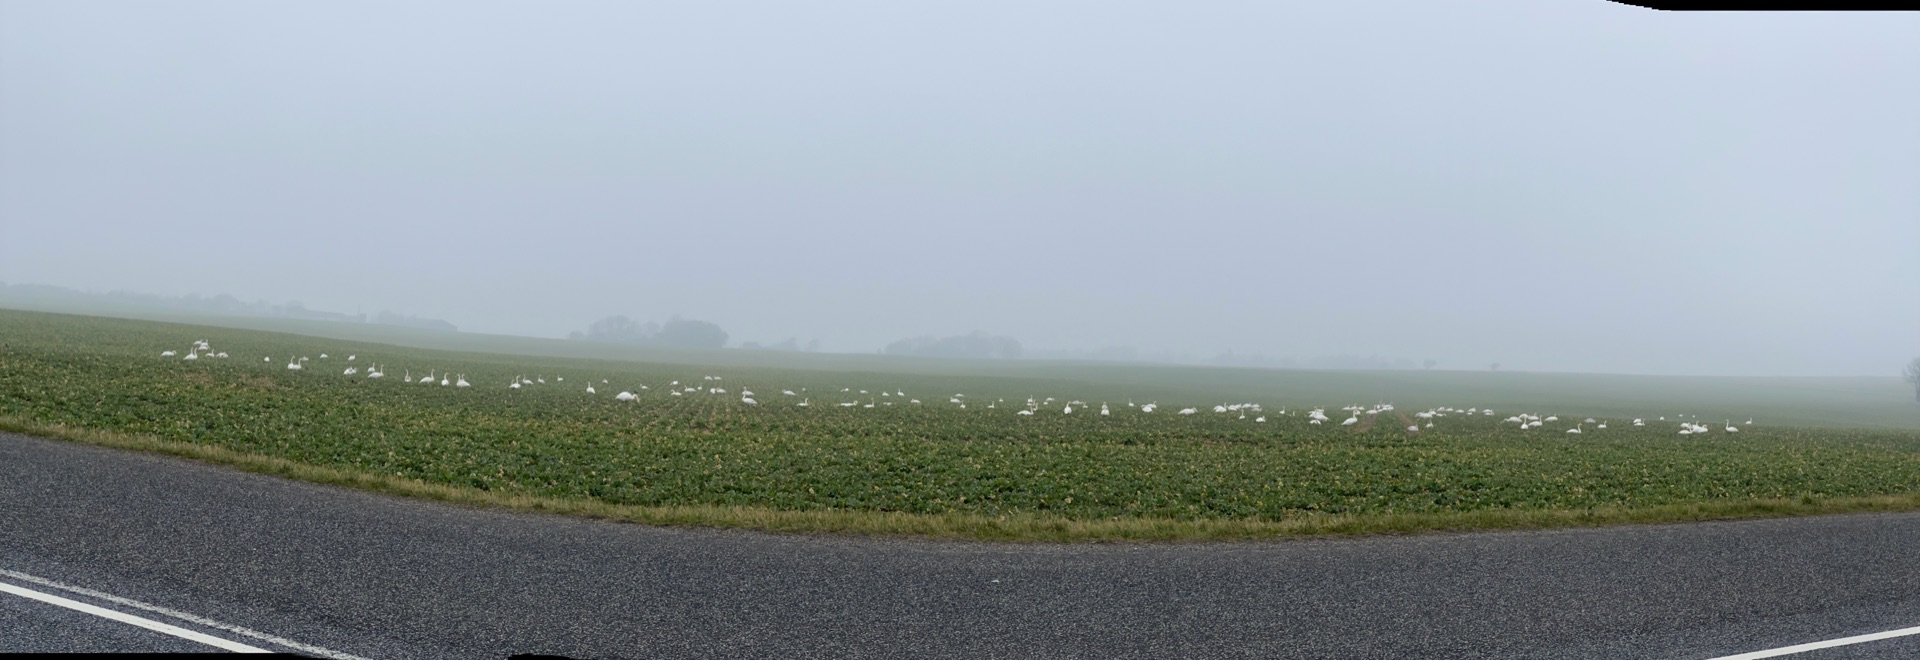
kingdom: Animalia
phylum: Chordata
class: Aves
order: Anseriformes
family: Anatidae
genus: Cygnus
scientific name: Cygnus cygnus
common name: Sangsvane
